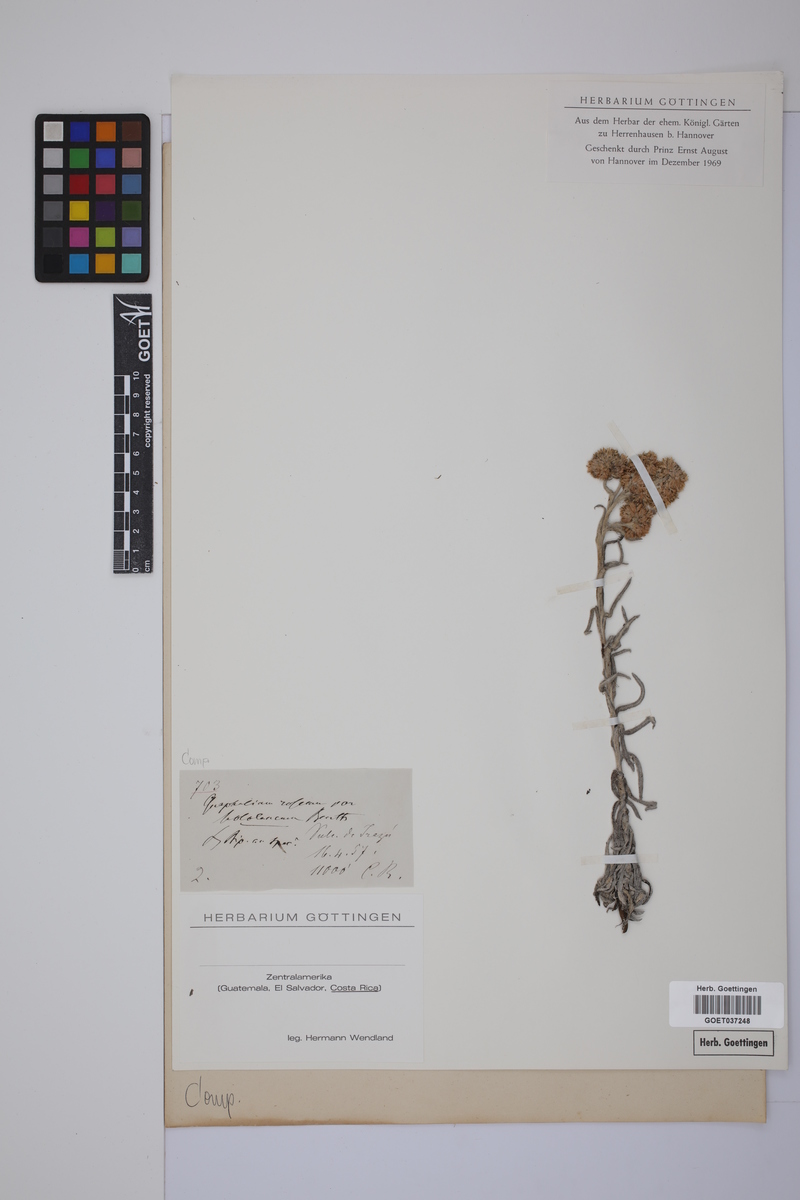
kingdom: Plantae
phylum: Tracheophyta
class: Magnoliopsida
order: Asterales
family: Asteraceae
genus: Pseudognaphalium
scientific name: Pseudognaphalium roseum
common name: Rosy cudweed
